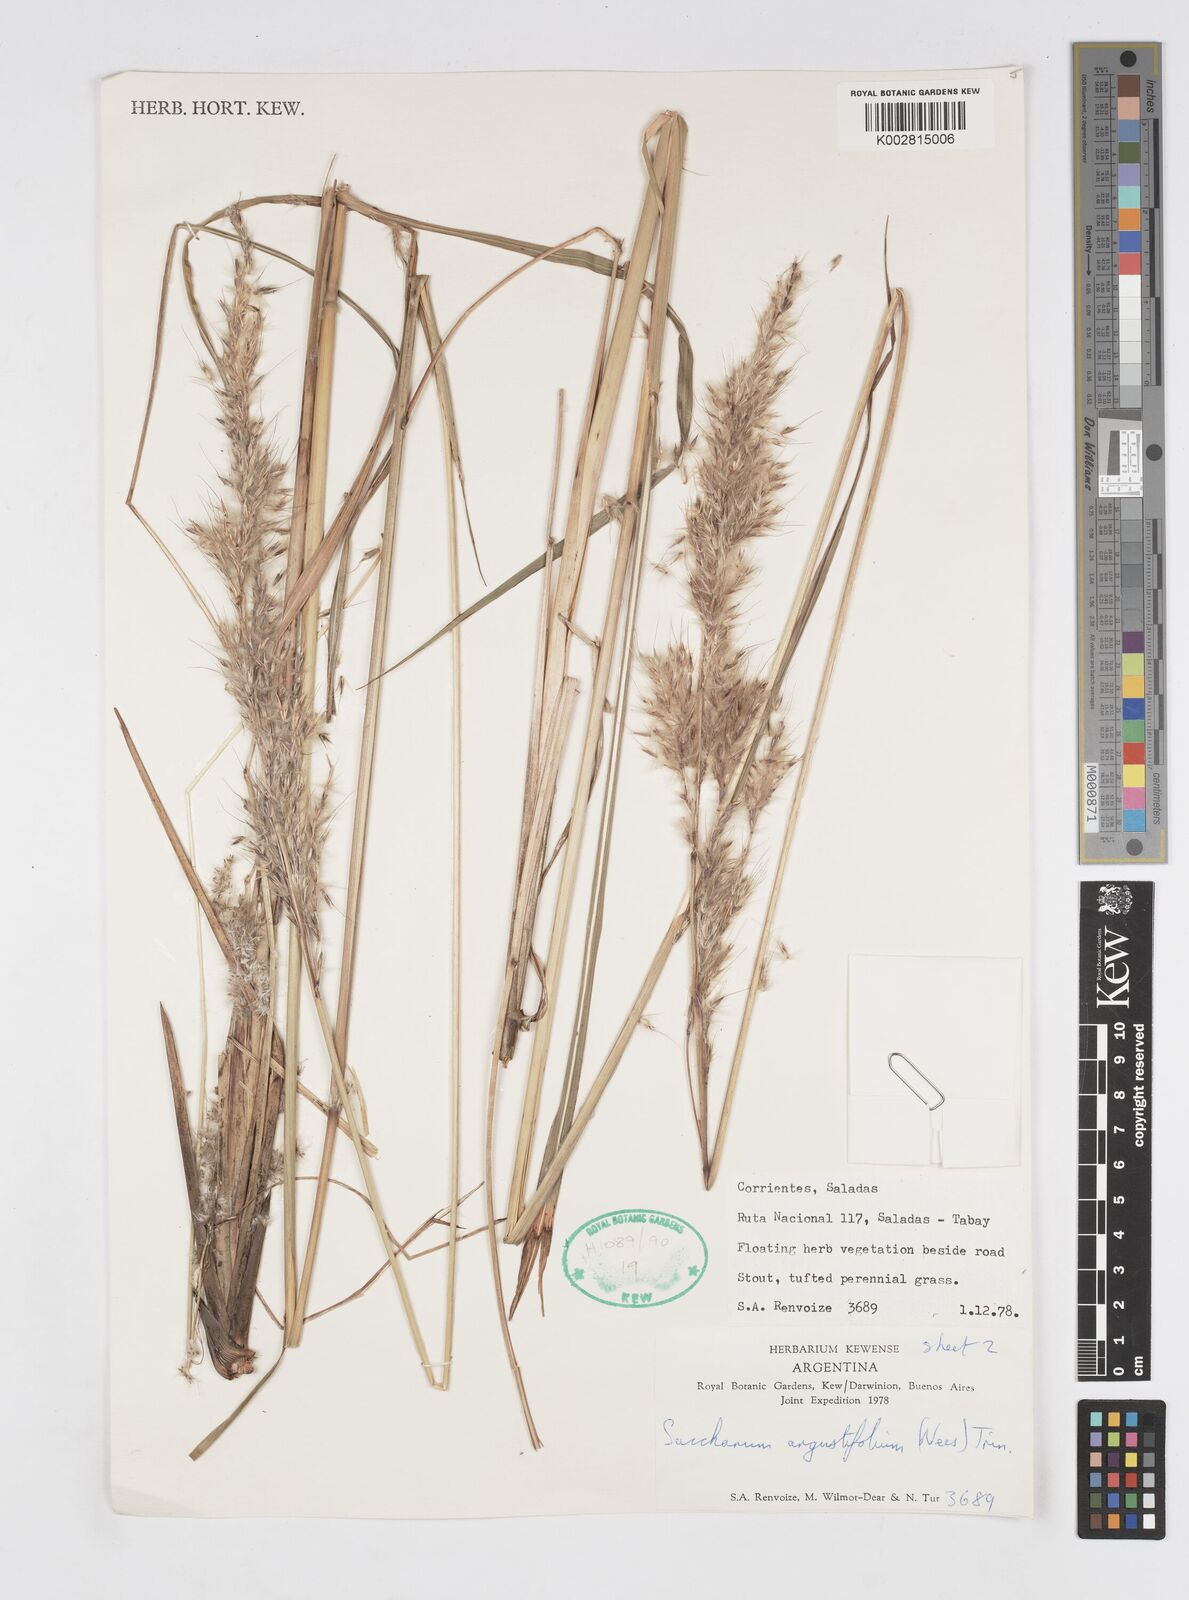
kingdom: Plantae
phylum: Tracheophyta
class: Liliopsida
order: Poales
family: Poaceae
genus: Saccharum
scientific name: Saccharum angustifolium
